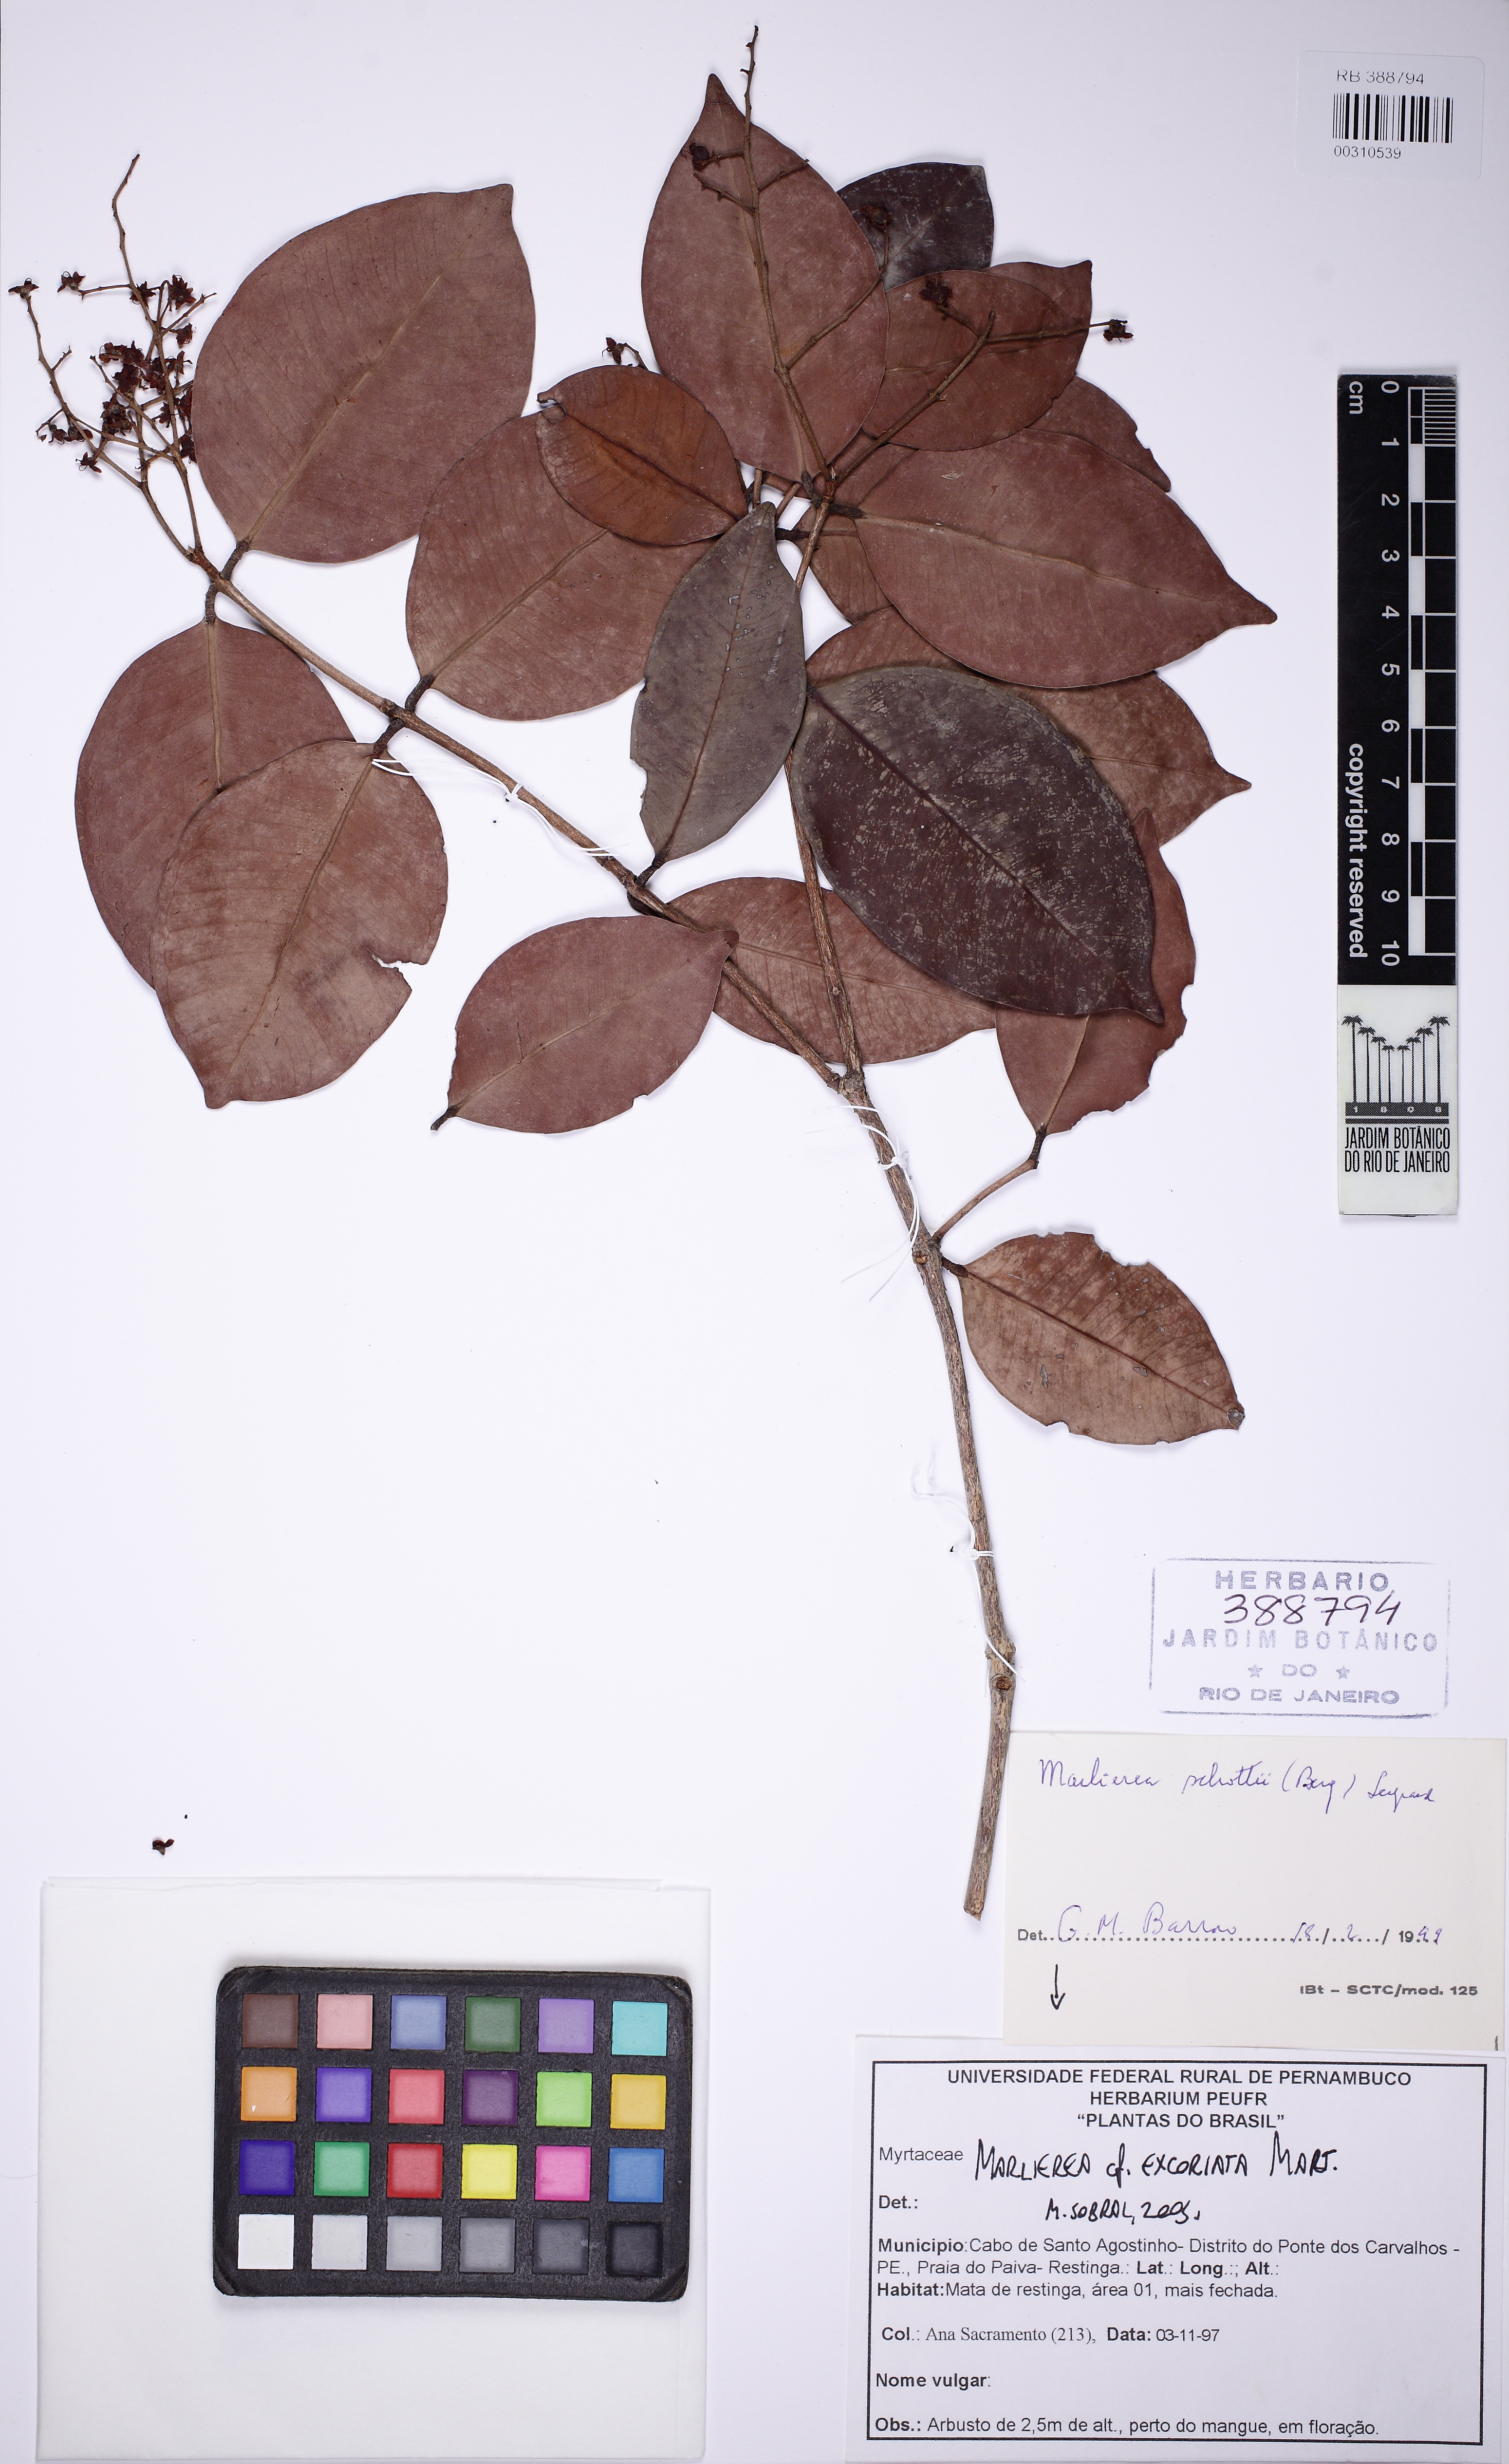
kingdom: Plantae
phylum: Tracheophyta
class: Magnoliopsida
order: Myrtales
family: Myrtaceae
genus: Myrcia
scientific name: Myrcia excoriata
